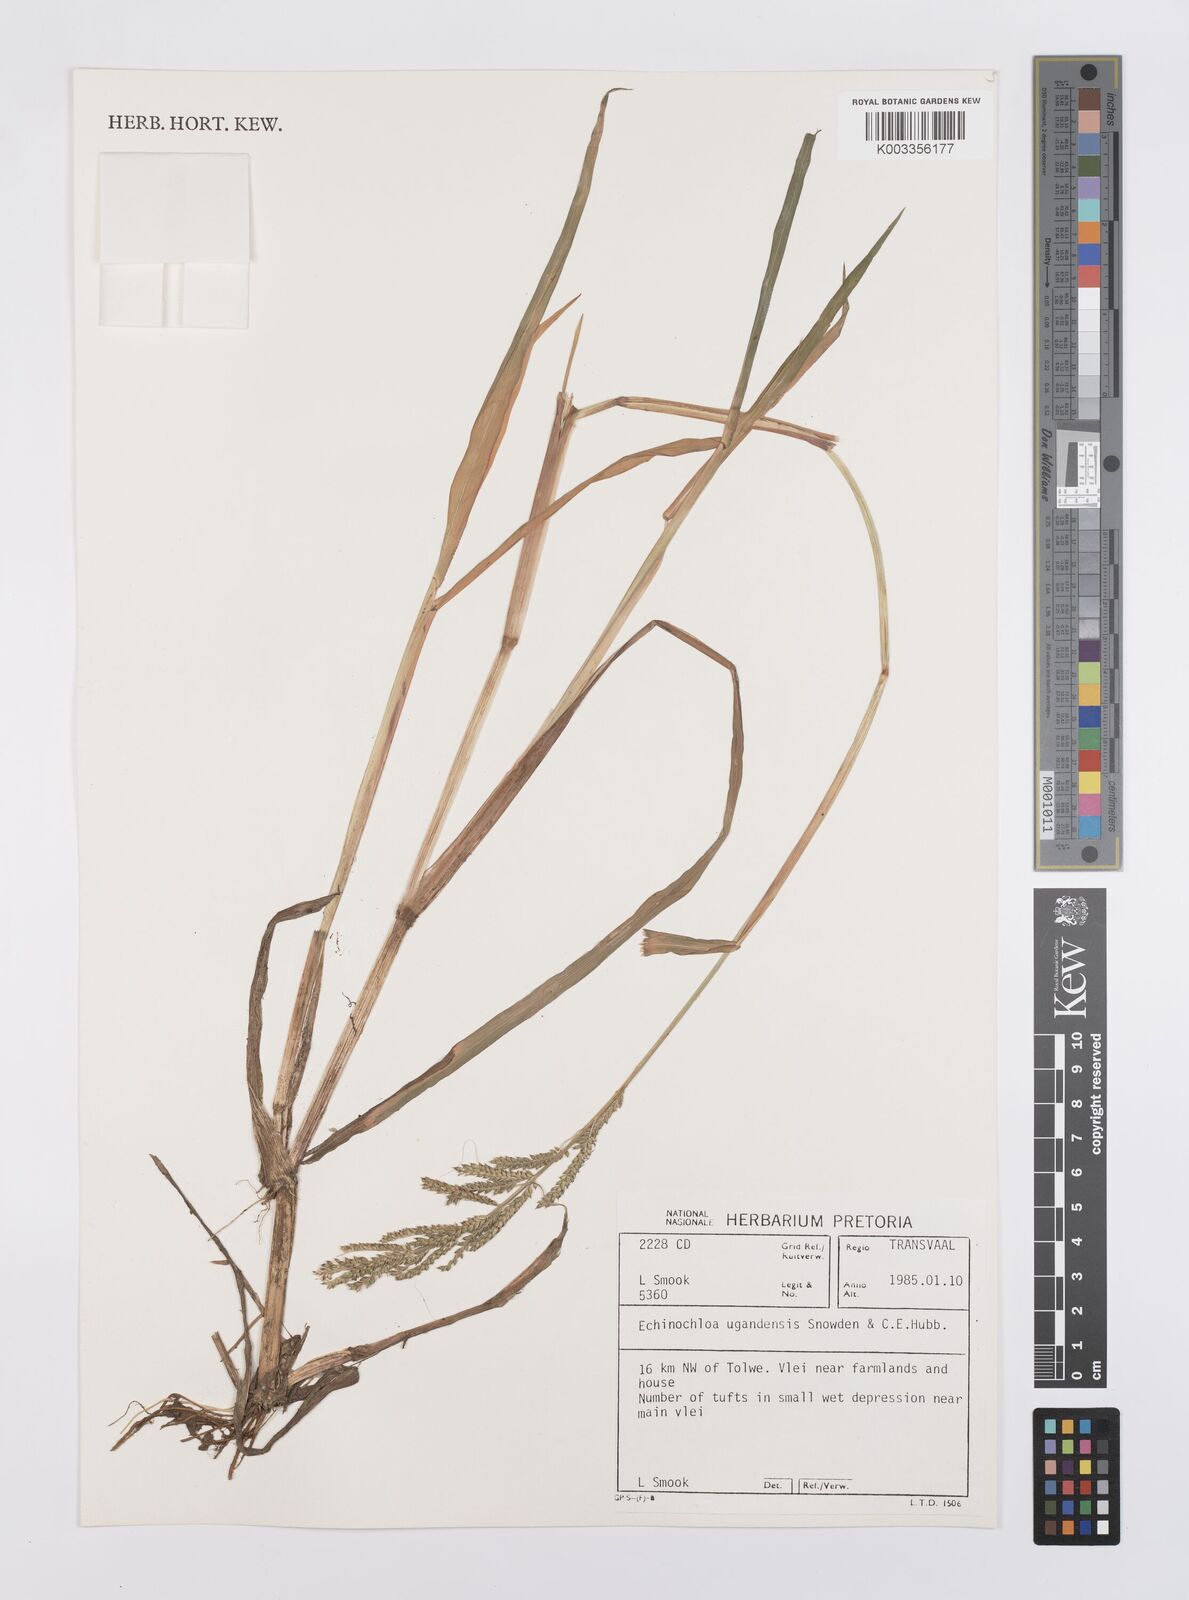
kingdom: Plantae
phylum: Tracheophyta
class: Liliopsida
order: Poales
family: Poaceae
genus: Echinochloa
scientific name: Echinochloa ugandensis
